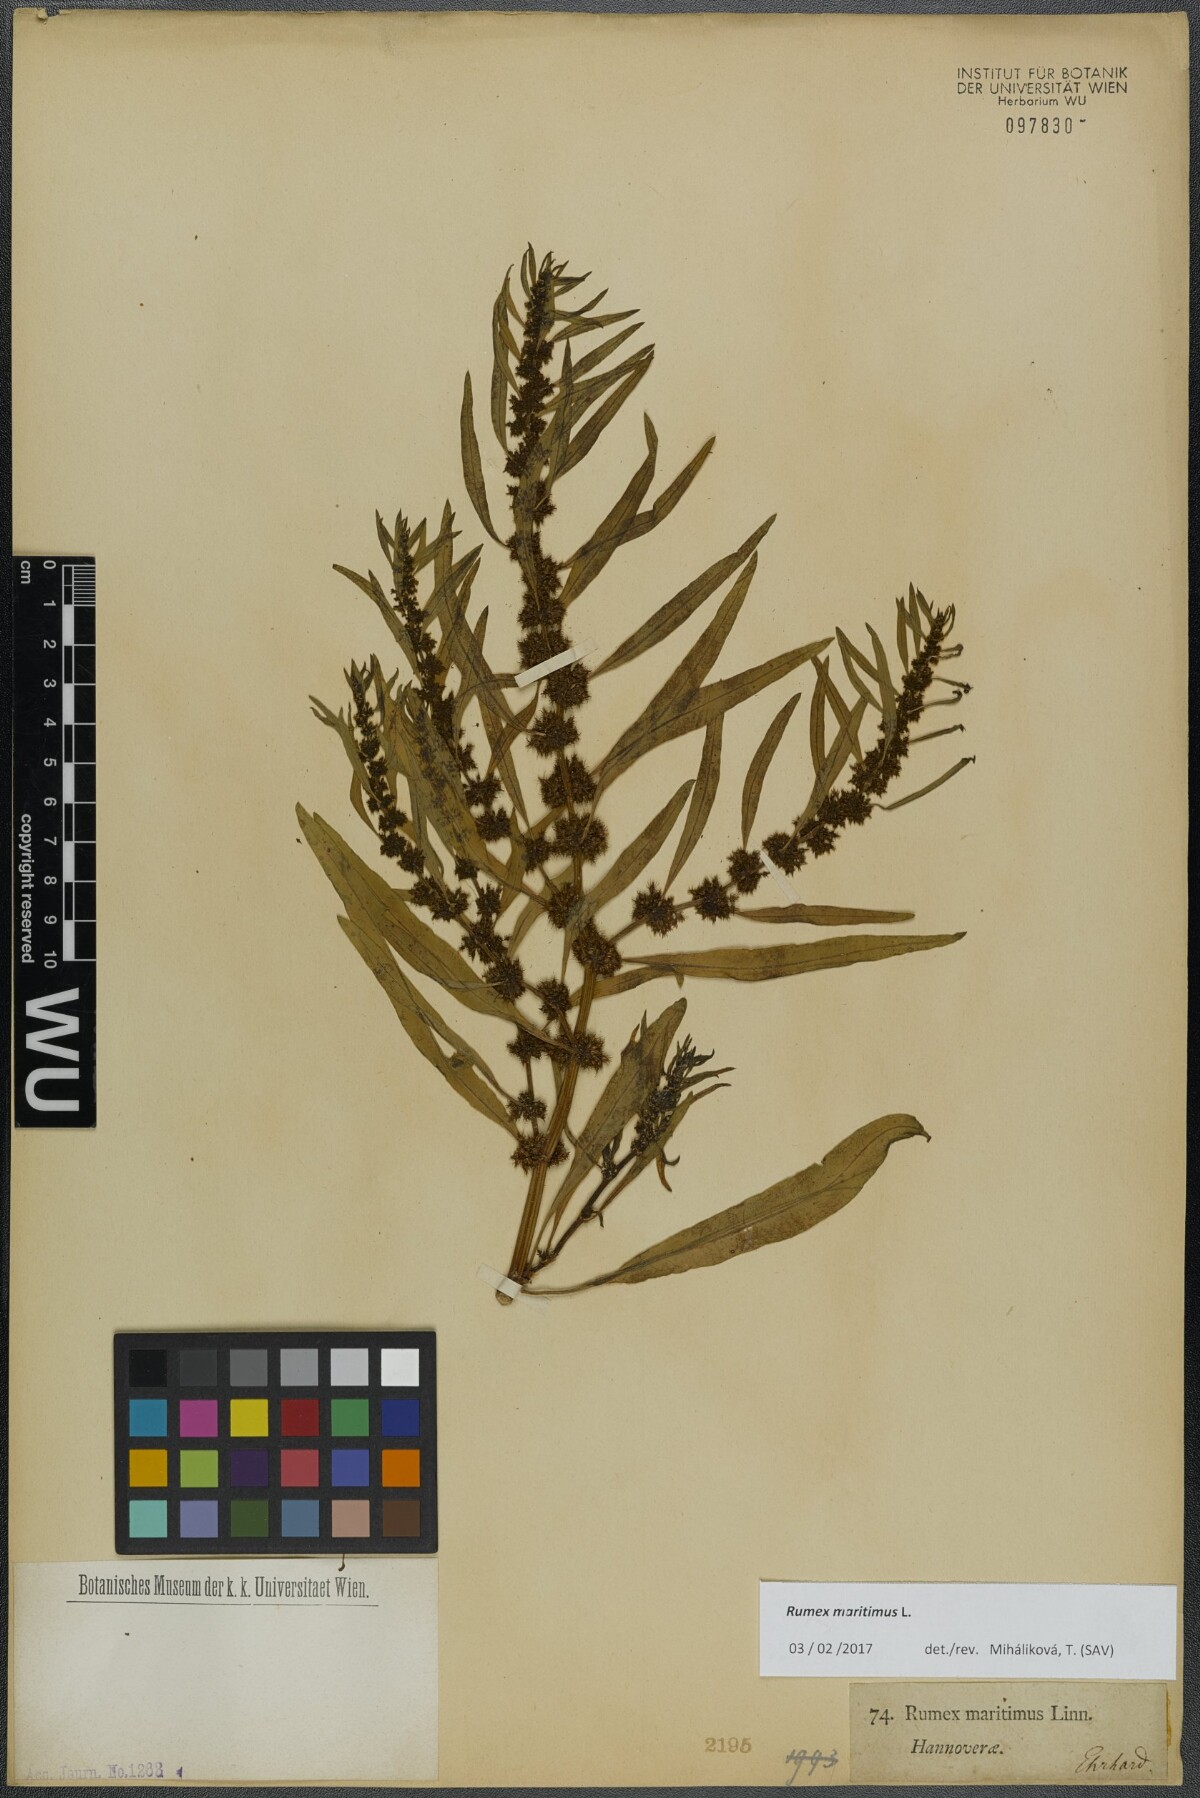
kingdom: Plantae
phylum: Tracheophyta
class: Magnoliopsida
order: Caryophyllales
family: Polygonaceae
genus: Rumex
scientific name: Rumex maritimus
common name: Golden dock
